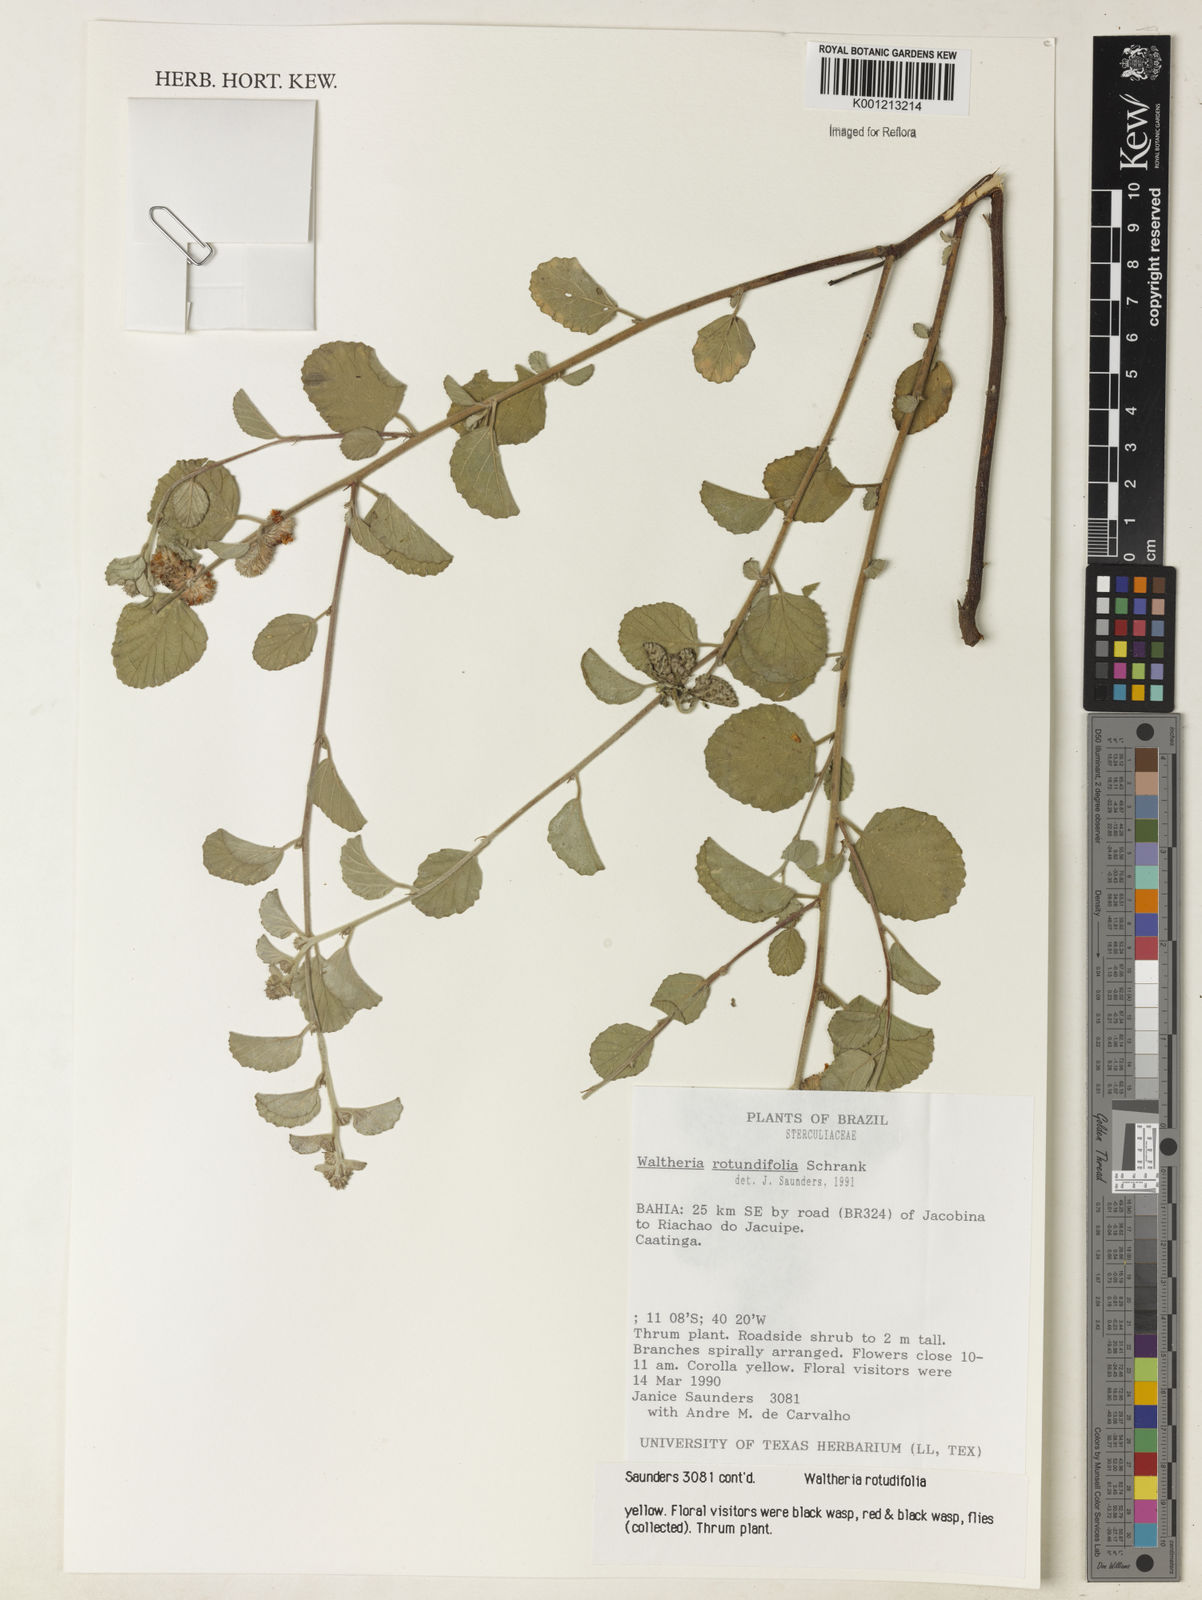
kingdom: Plantae
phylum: Tracheophyta
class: Magnoliopsida
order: Malvales
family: Malvaceae
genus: Waltheria
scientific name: Waltheria rotundifolia
